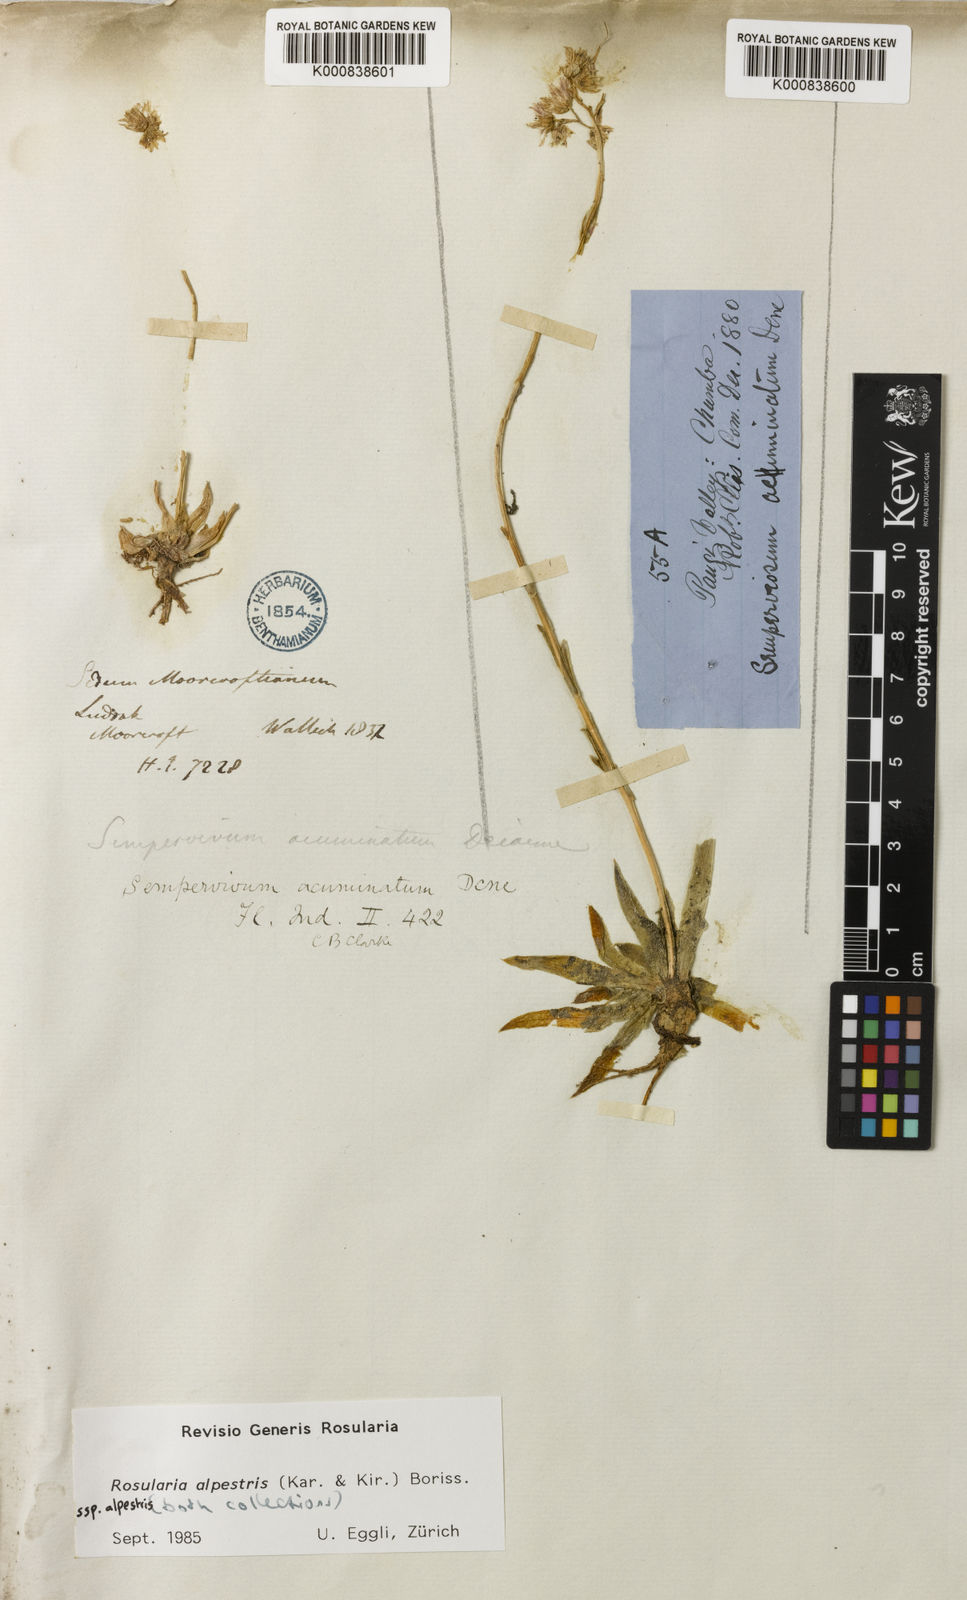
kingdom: Plantae
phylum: Tracheophyta
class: Magnoliopsida
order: Saxifragales
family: Crassulaceae
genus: Rosularia
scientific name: Rosularia alpestris
